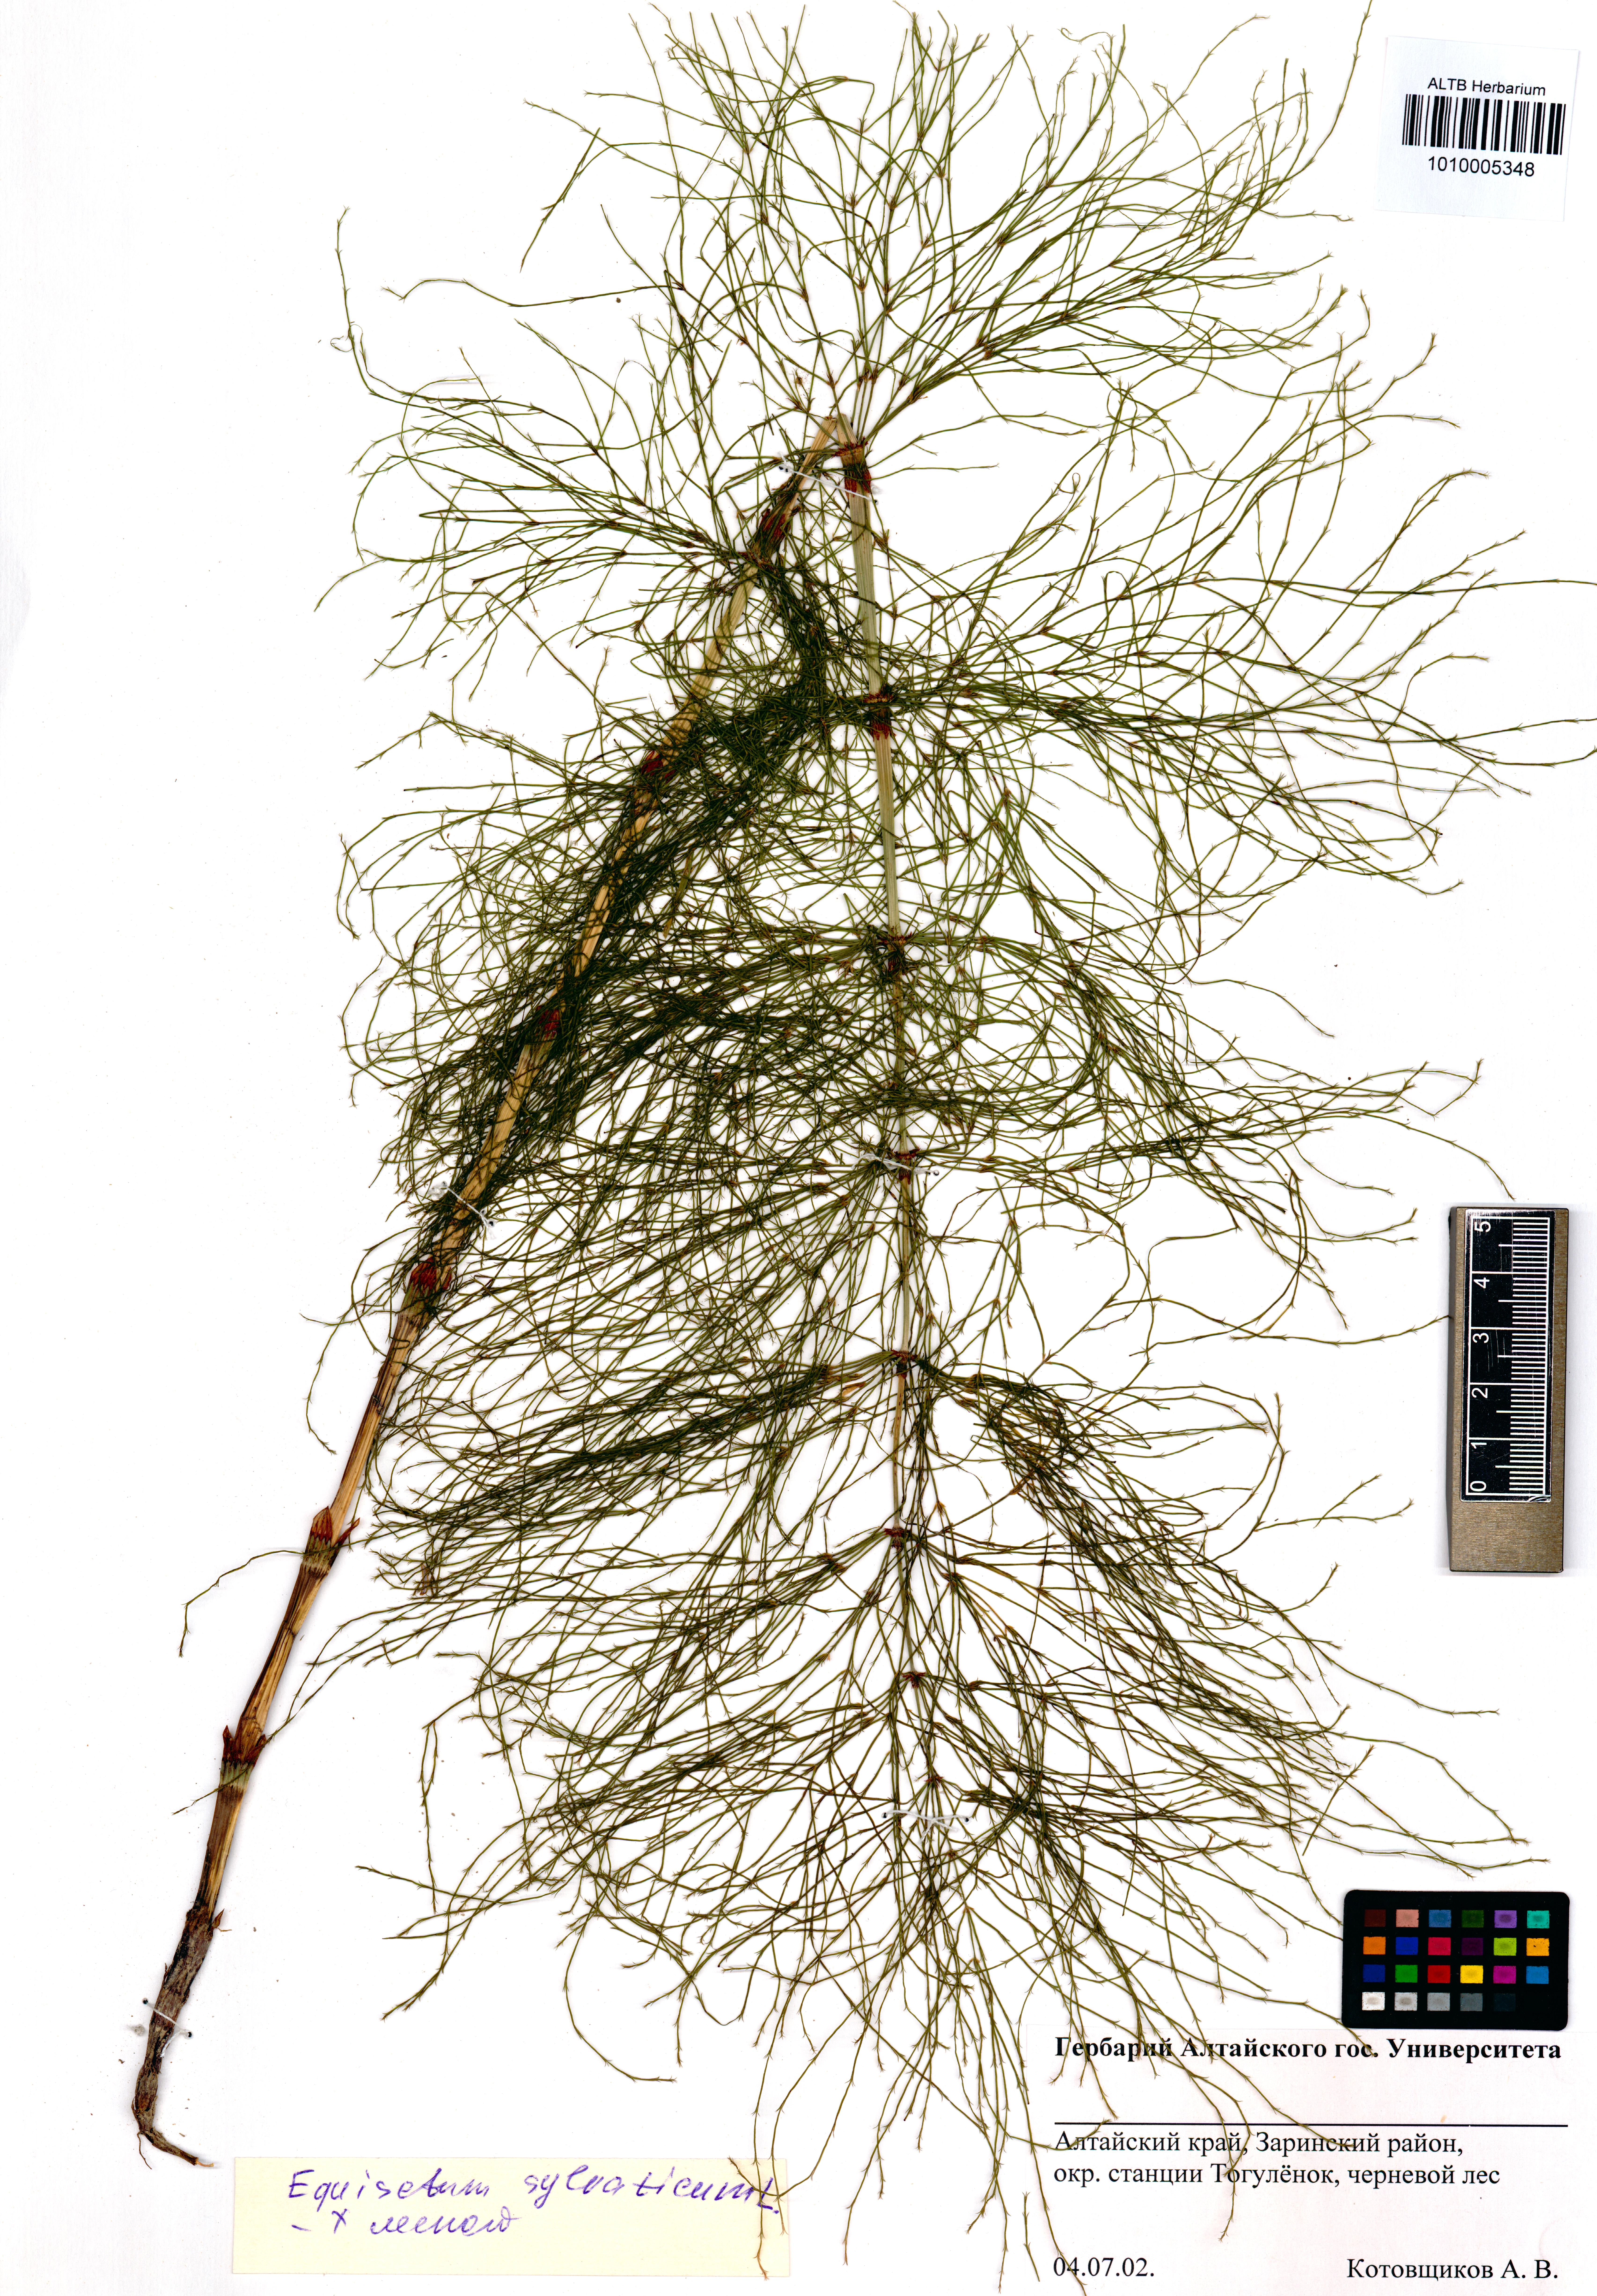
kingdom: Plantae
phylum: Tracheophyta
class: Polypodiopsida
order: Equisetales
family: Equisetaceae
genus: Equisetum
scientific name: Equisetum sylvaticum
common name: Wood horsetail
